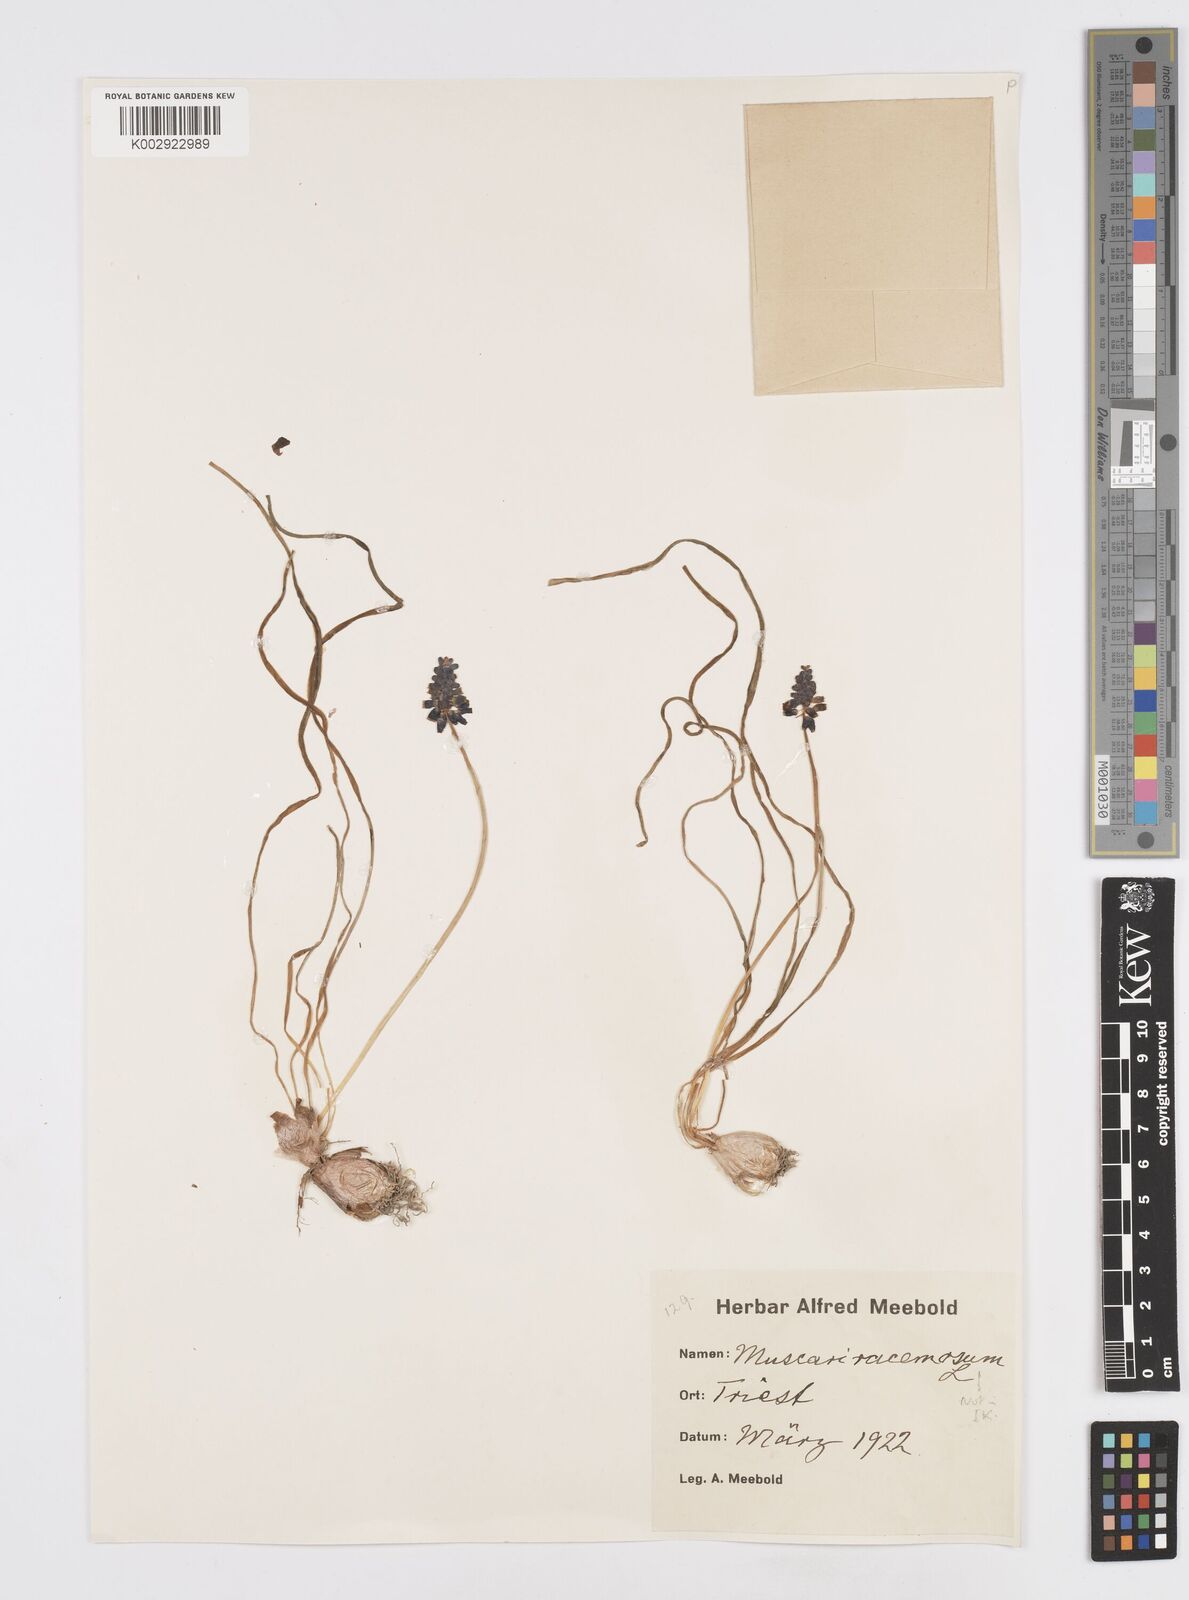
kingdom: Plantae
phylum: Tracheophyta
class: Liliopsida
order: Asparagales
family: Asparagaceae
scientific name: Asparagaceae
